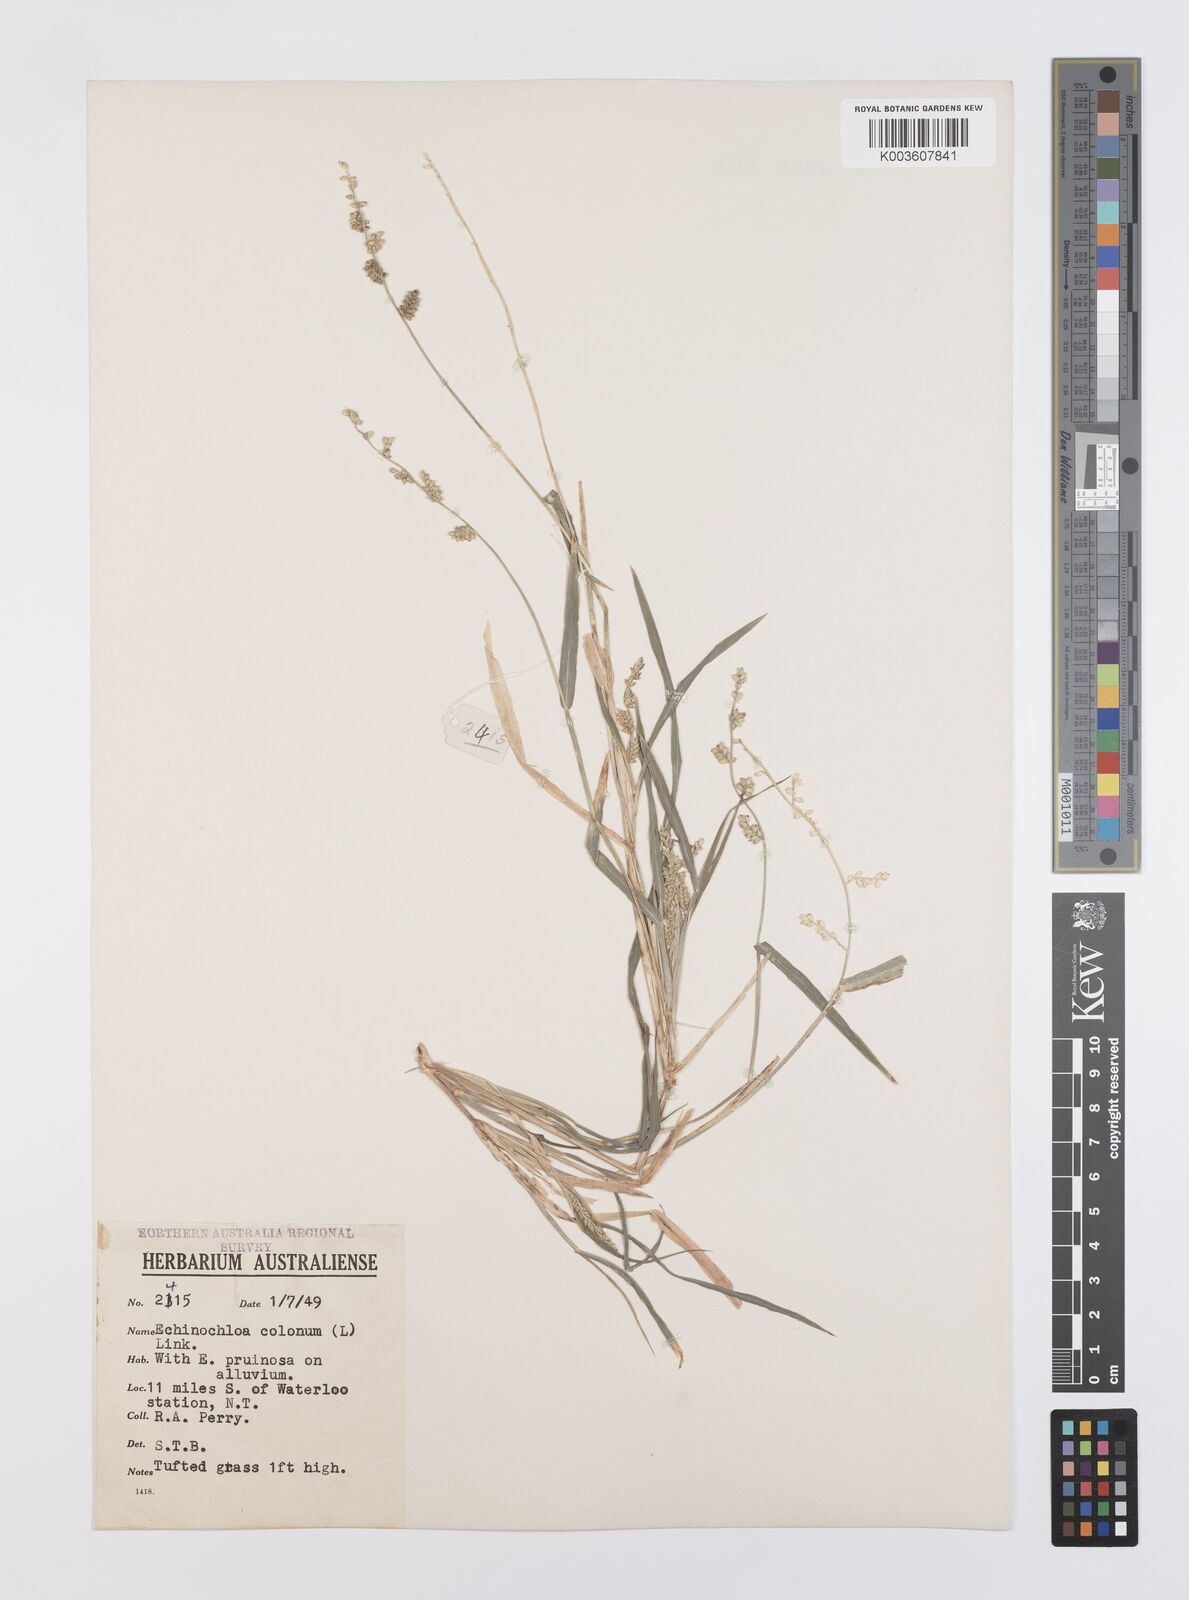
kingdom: Plantae
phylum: Tracheophyta
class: Liliopsida
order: Poales
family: Poaceae
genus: Echinochloa
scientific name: Echinochloa colonum
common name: Jungle rice
